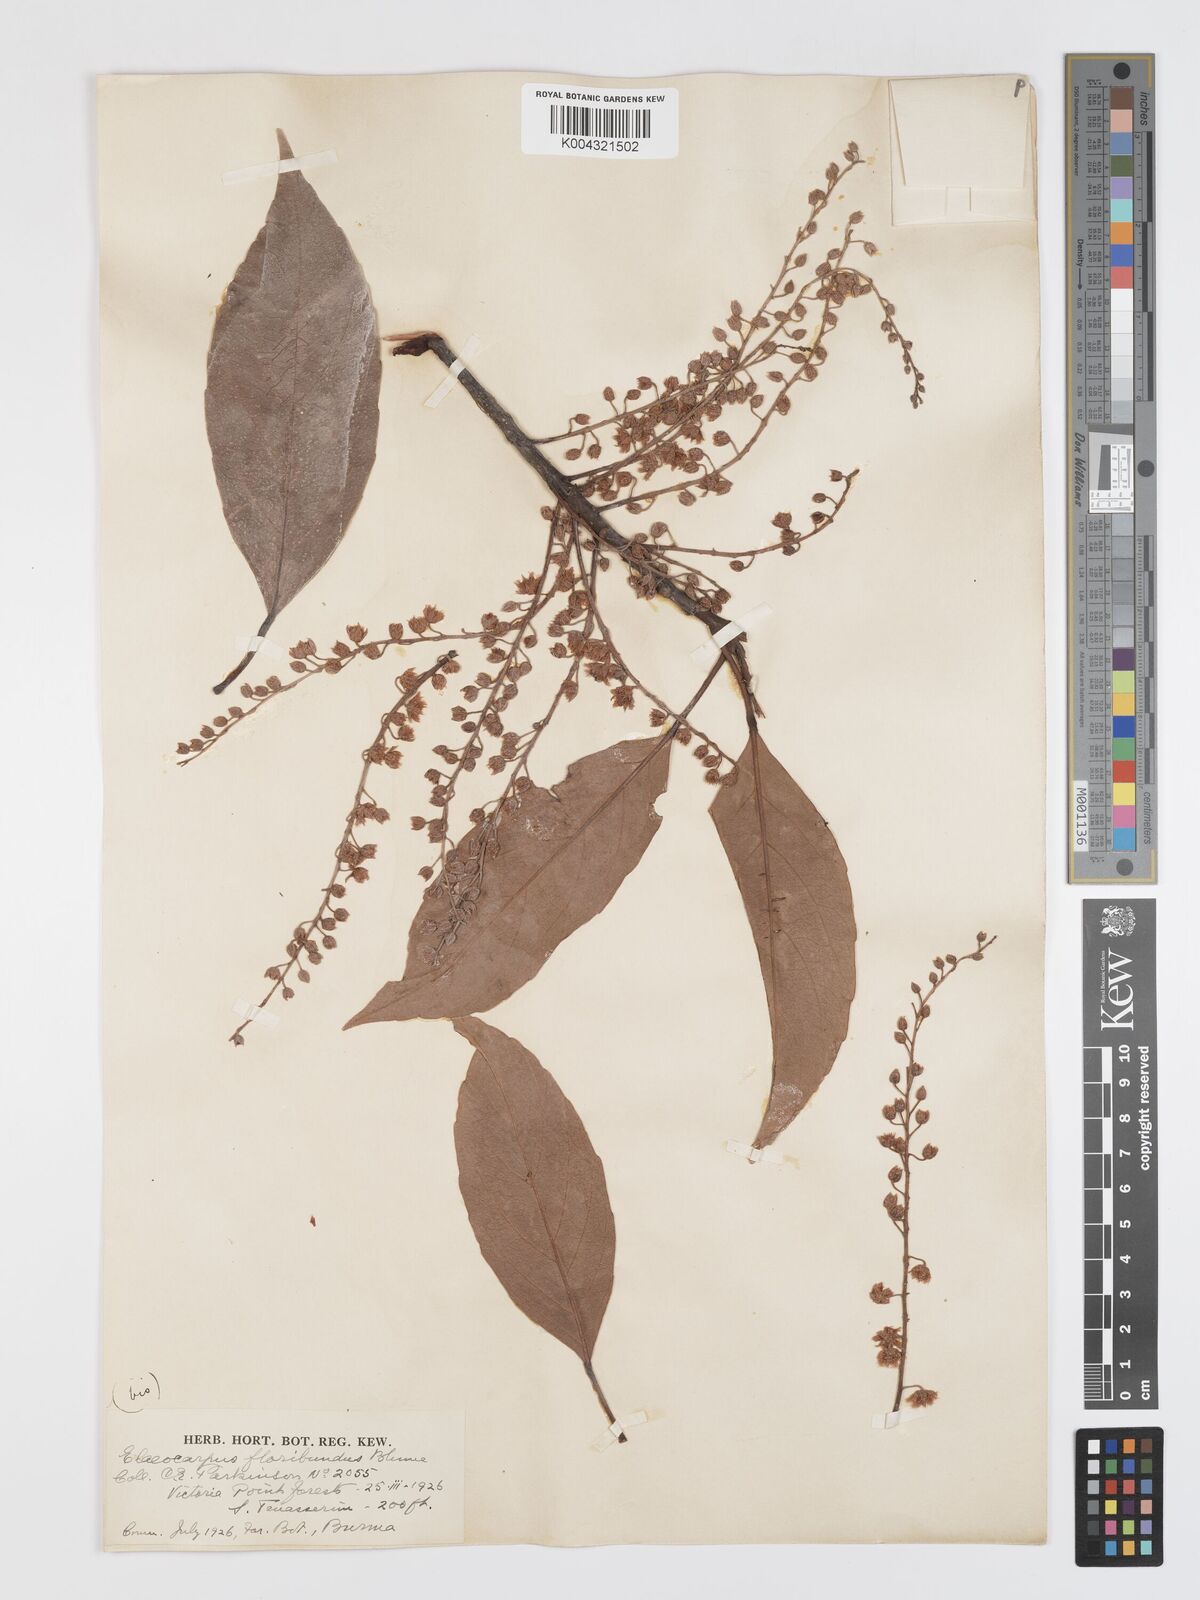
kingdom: Plantae
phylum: Tracheophyta
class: Magnoliopsida
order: Oxalidales
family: Elaeocarpaceae
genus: Elaeocarpus
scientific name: Elaeocarpus floribundus
